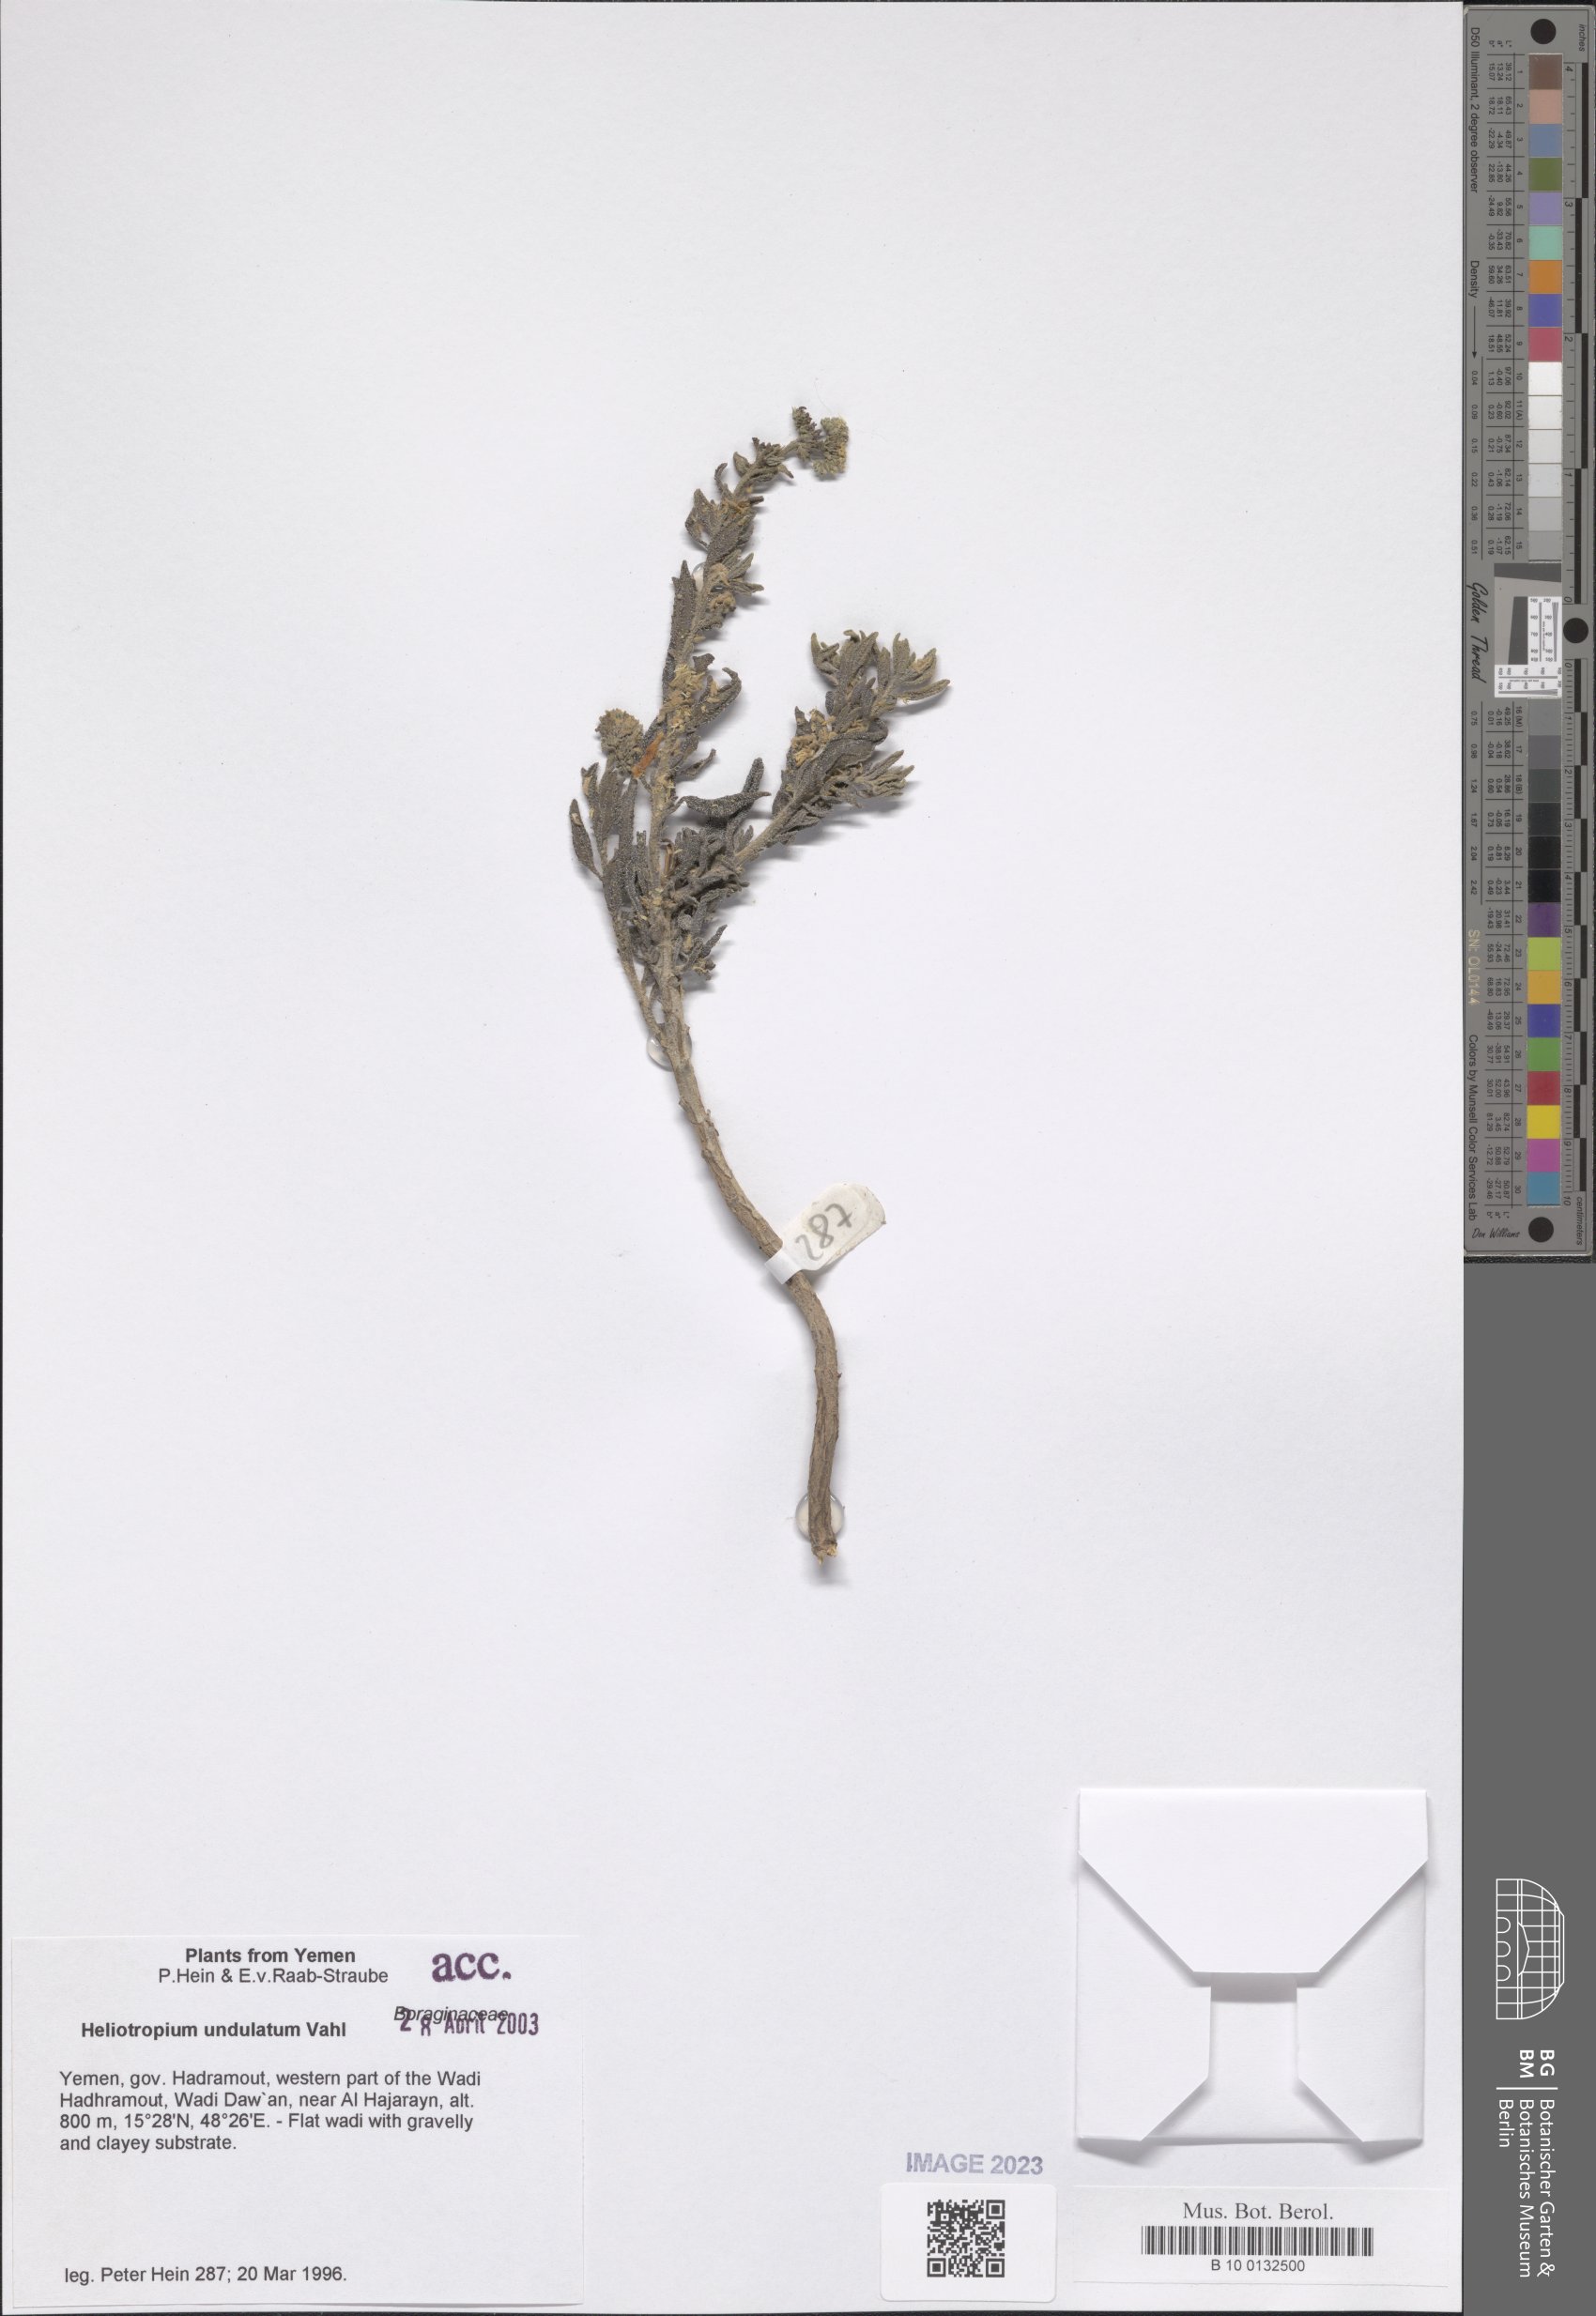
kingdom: Plantae
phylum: Tracheophyta
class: Magnoliopsida
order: Boraginales
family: Heliotropiaceae
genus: Heliotropium
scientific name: Heliotropium bacciferum
